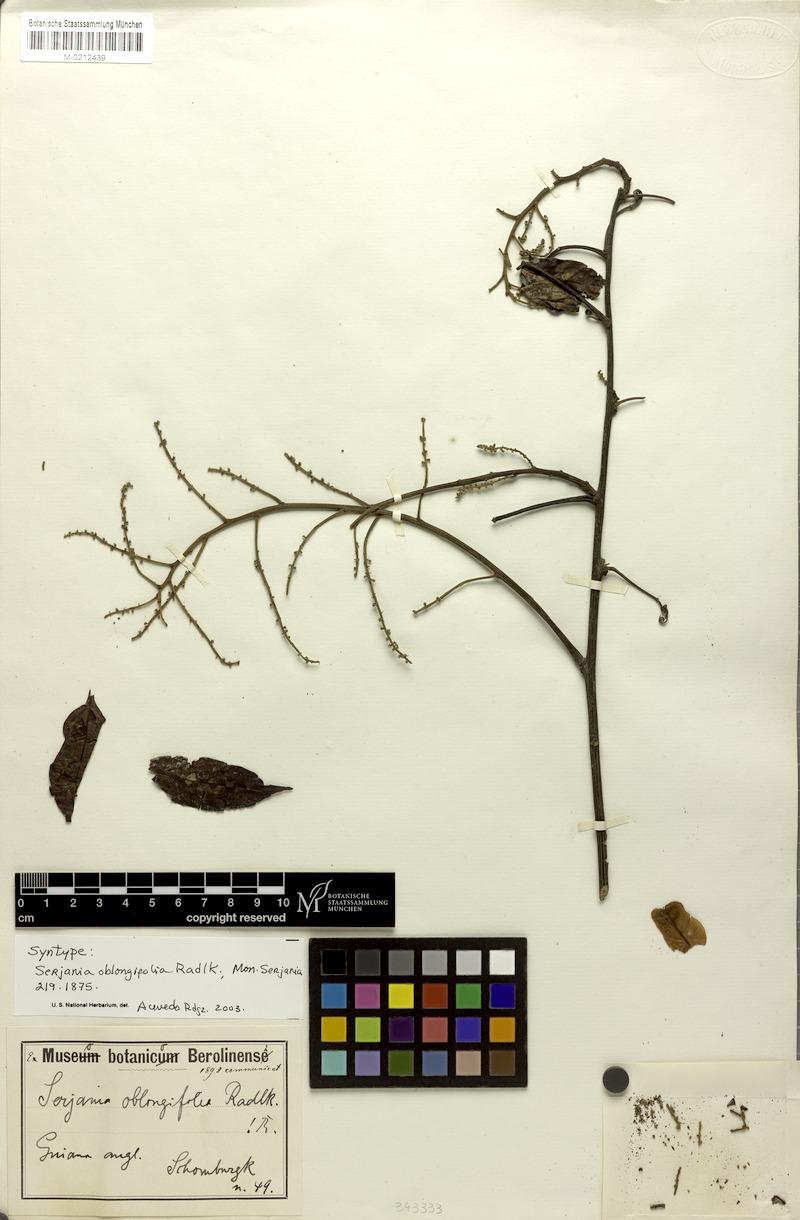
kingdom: Plantae
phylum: Tracheophyta
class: Magnoliopsida
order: Sapindales
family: Sapindaceae
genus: Serjania
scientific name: Serjania oblongifolia
